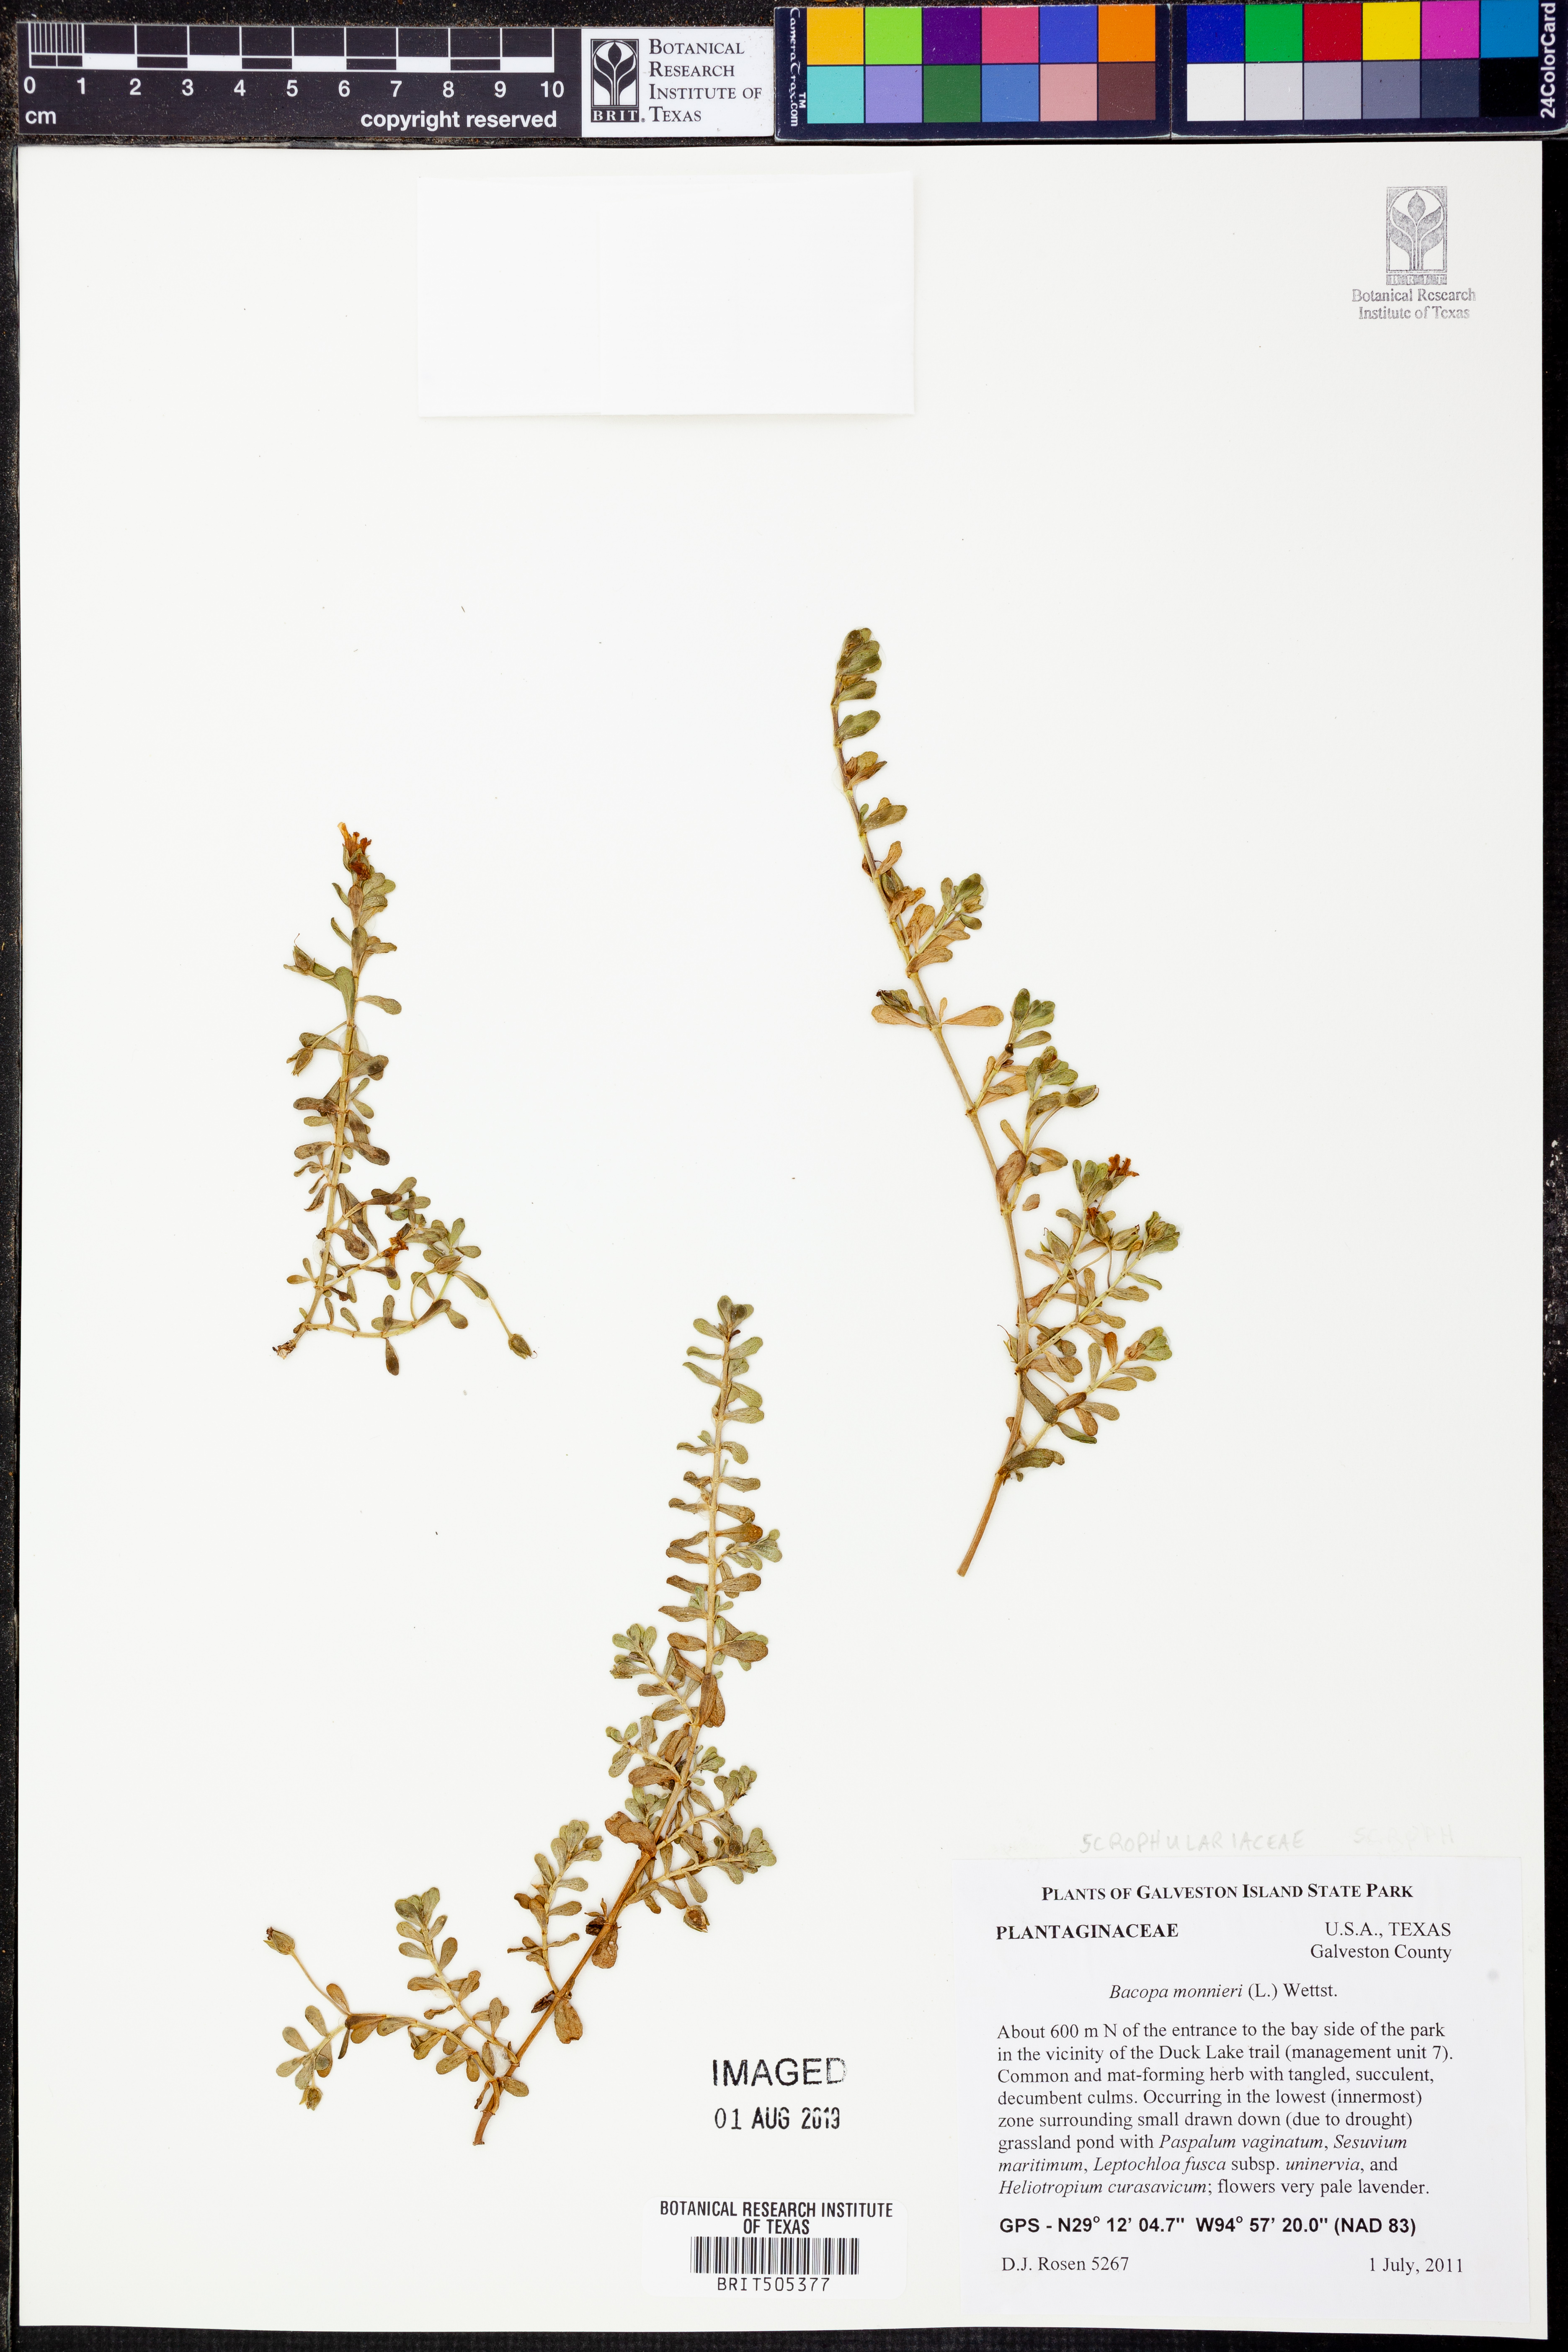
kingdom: Plantae
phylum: Tracheophyta
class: Magnoliopsida
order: Lamiales
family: Plantaginaceae
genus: Bacopa
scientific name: Bacopa monnieri
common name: Indian-pennywort
